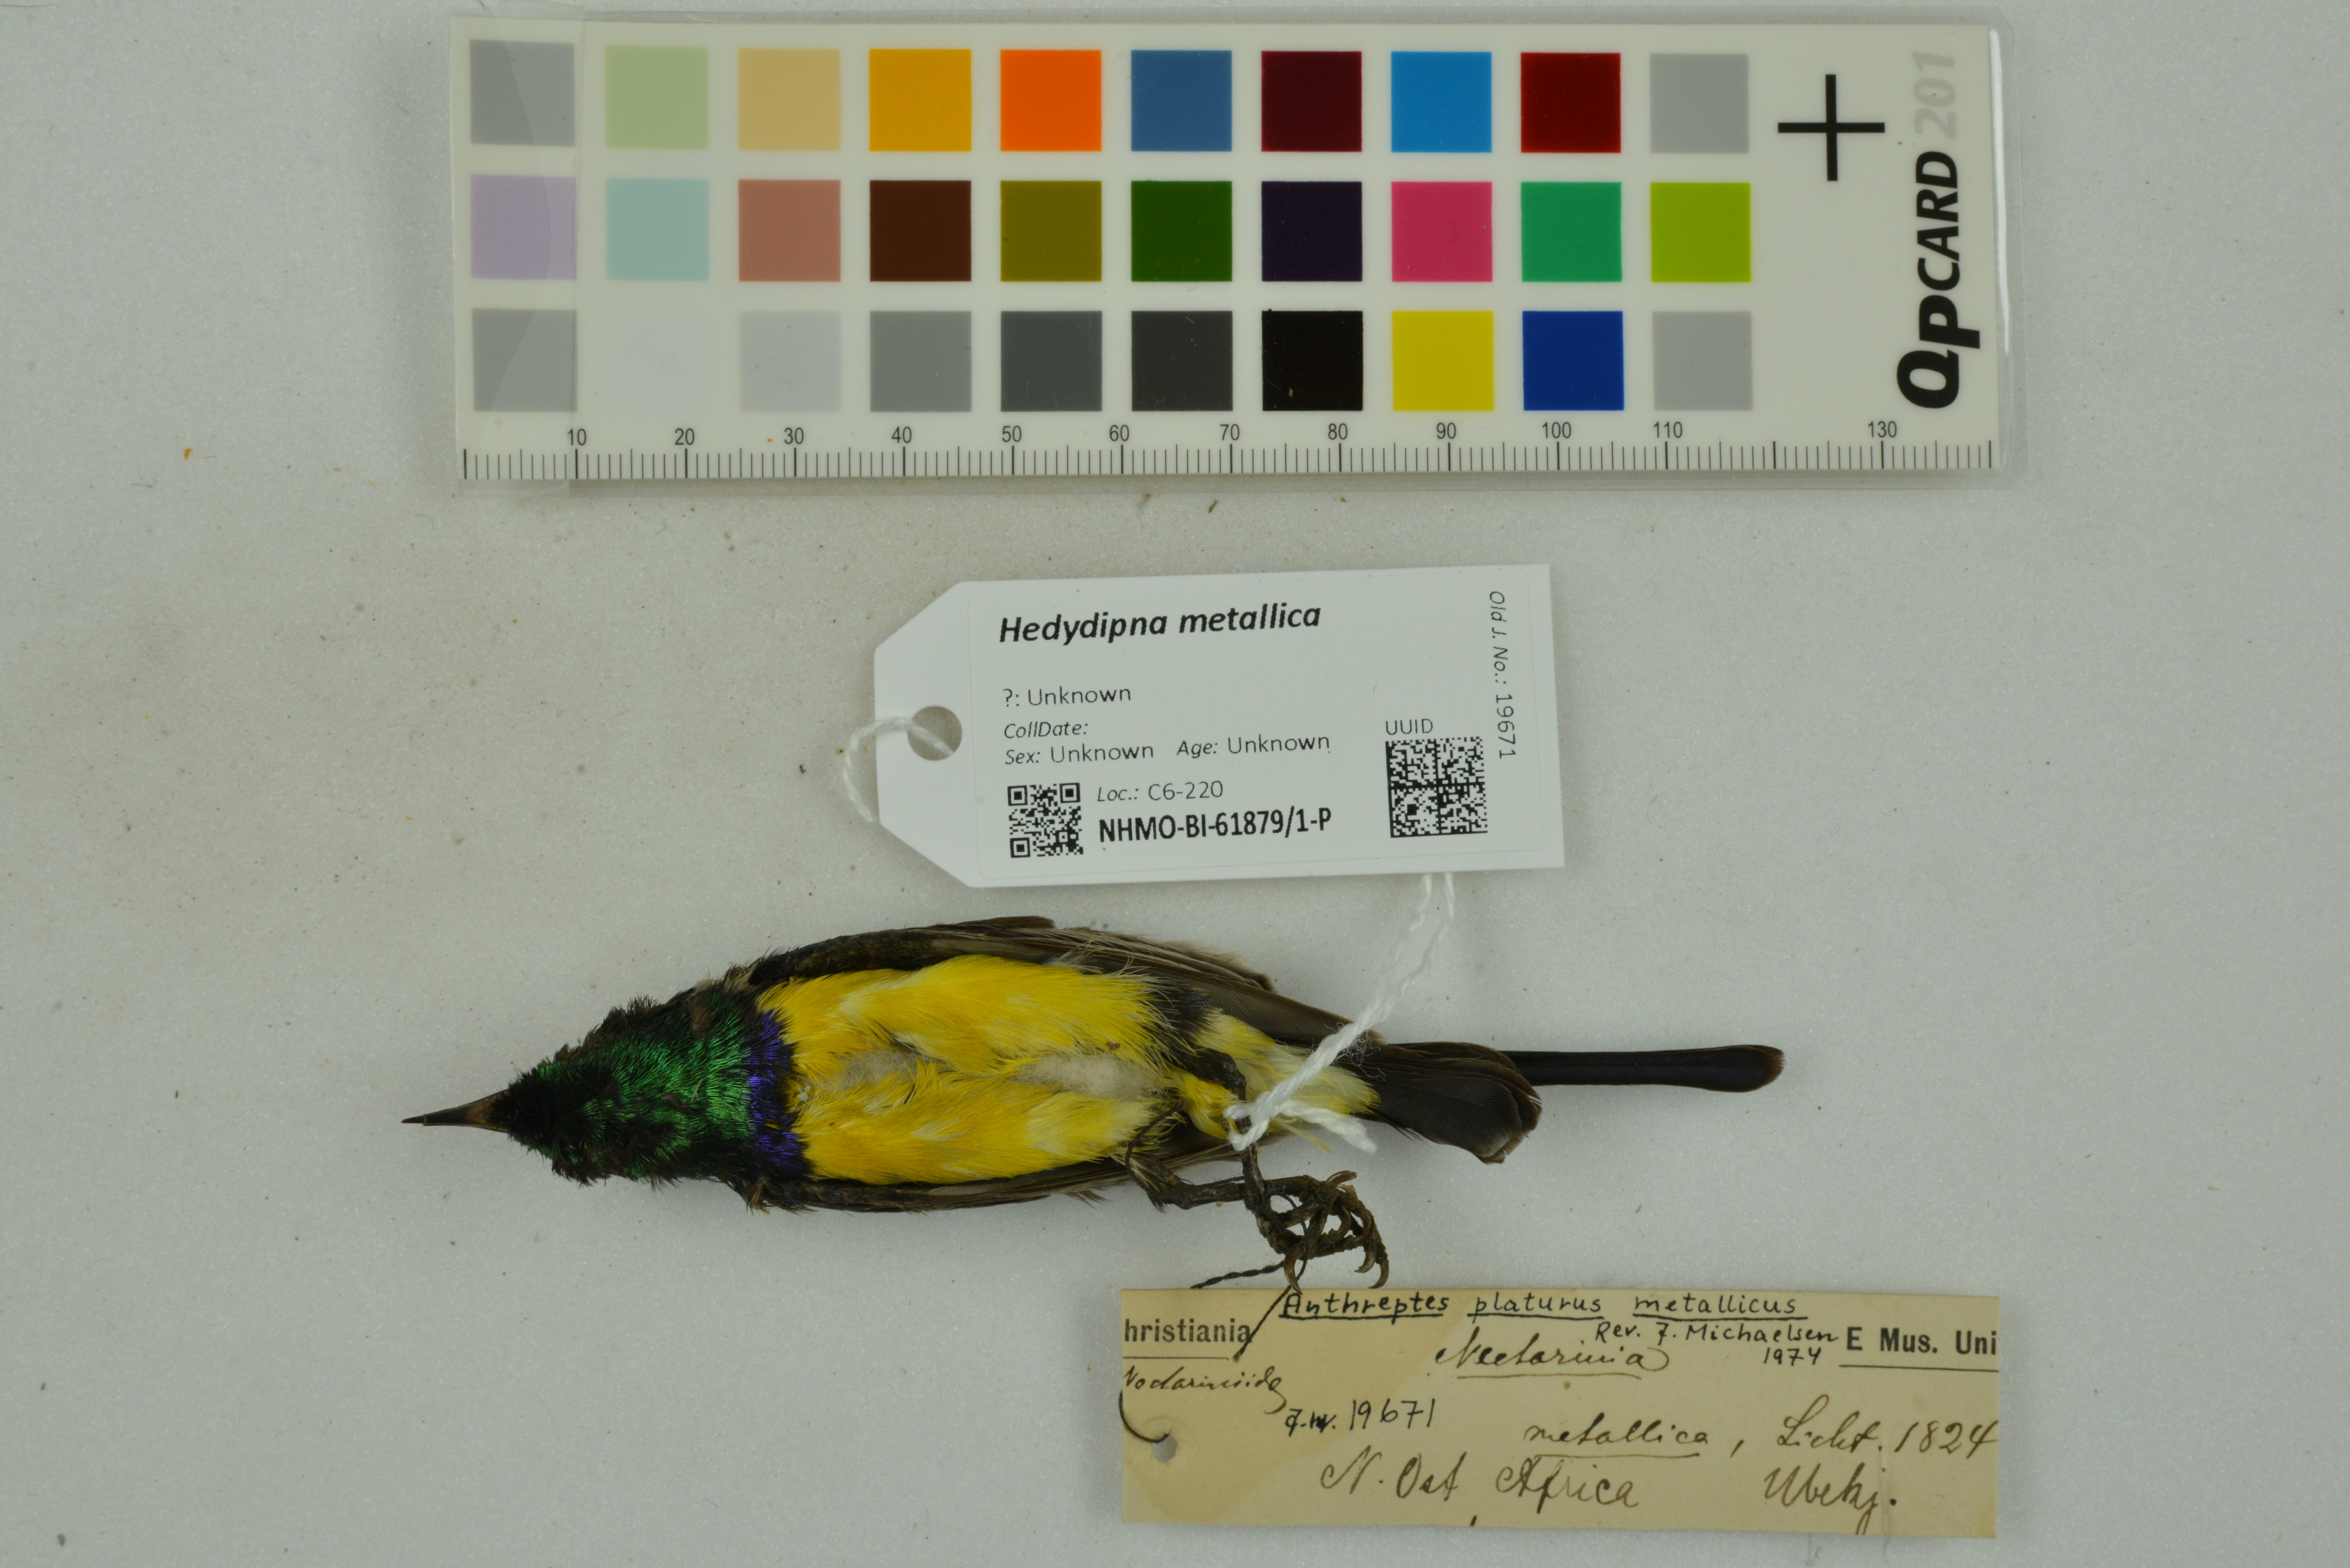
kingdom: Animalia
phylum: Chordata
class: Aves
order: Passeriformes
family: Nectariniidae
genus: Hedydipna
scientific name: Hedydipna metallica
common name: Nile valley sunbird
